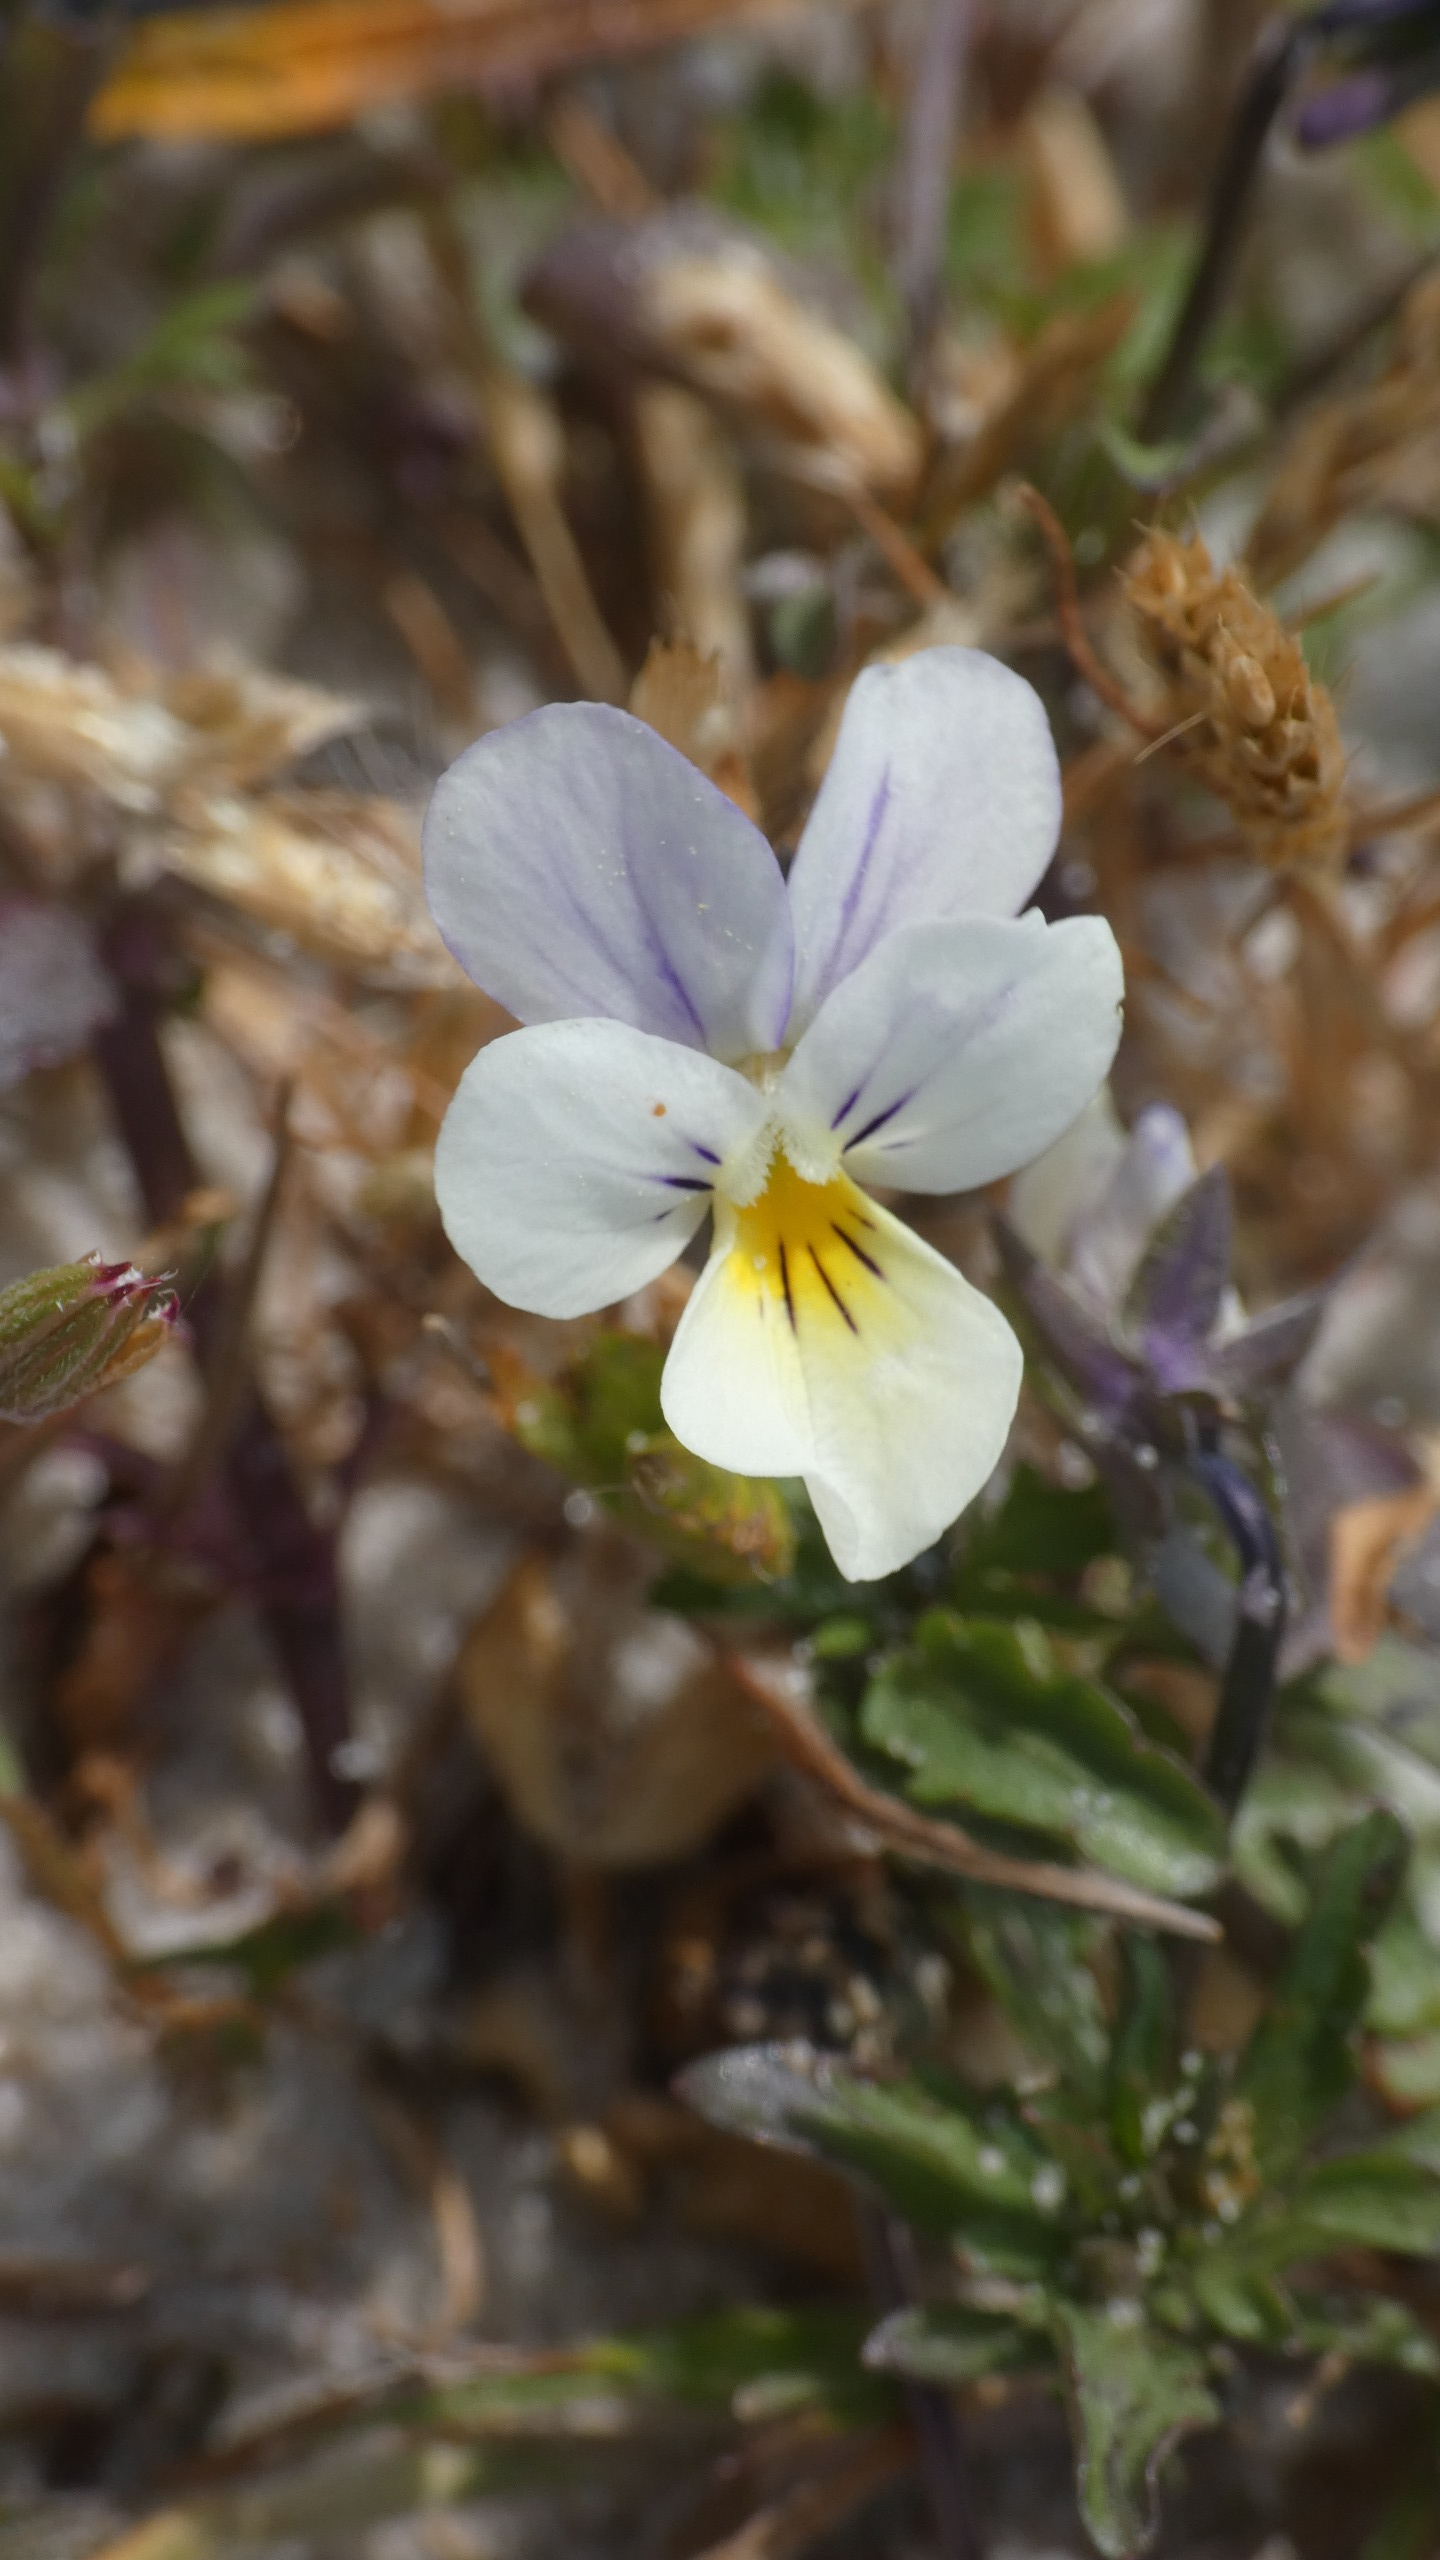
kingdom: Plantae
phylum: Tracheophyta
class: Magnoliopsida
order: Malpighiales
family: Violaceae
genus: Viola
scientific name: Viola tricolor
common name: Stedmoderblomst
